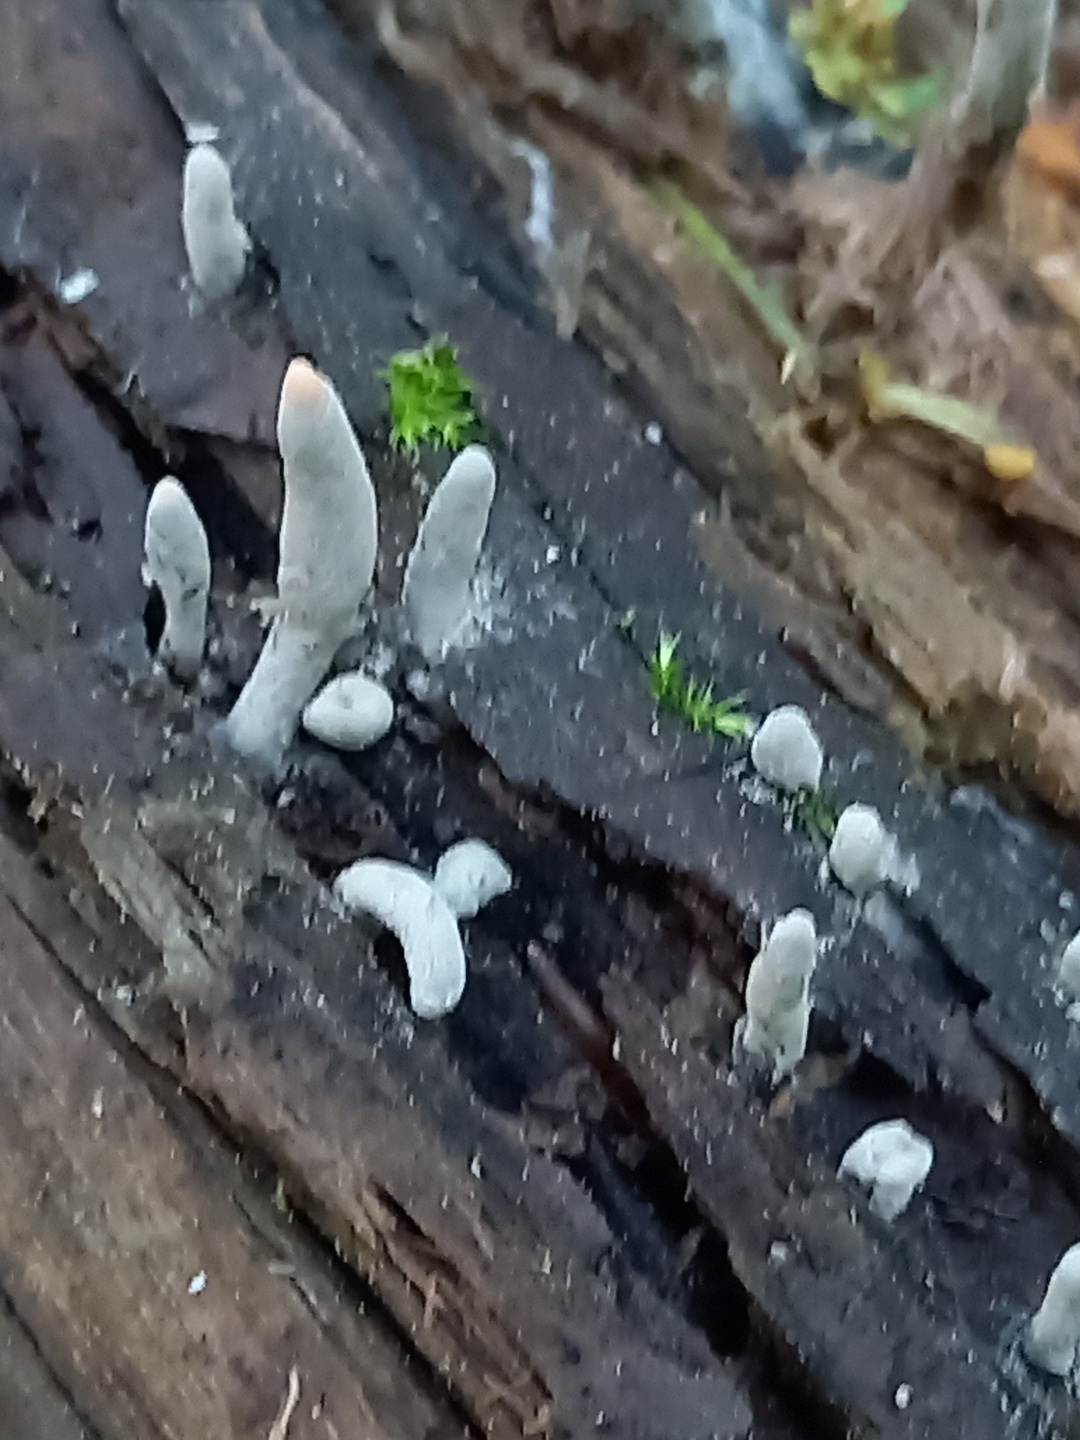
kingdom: Fungi
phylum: Ascomycota
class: Sordariomycetes
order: Xylariales
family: Xylariaceae
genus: Xylaria
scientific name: Xylaria longipes
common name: slank stødsvamp
